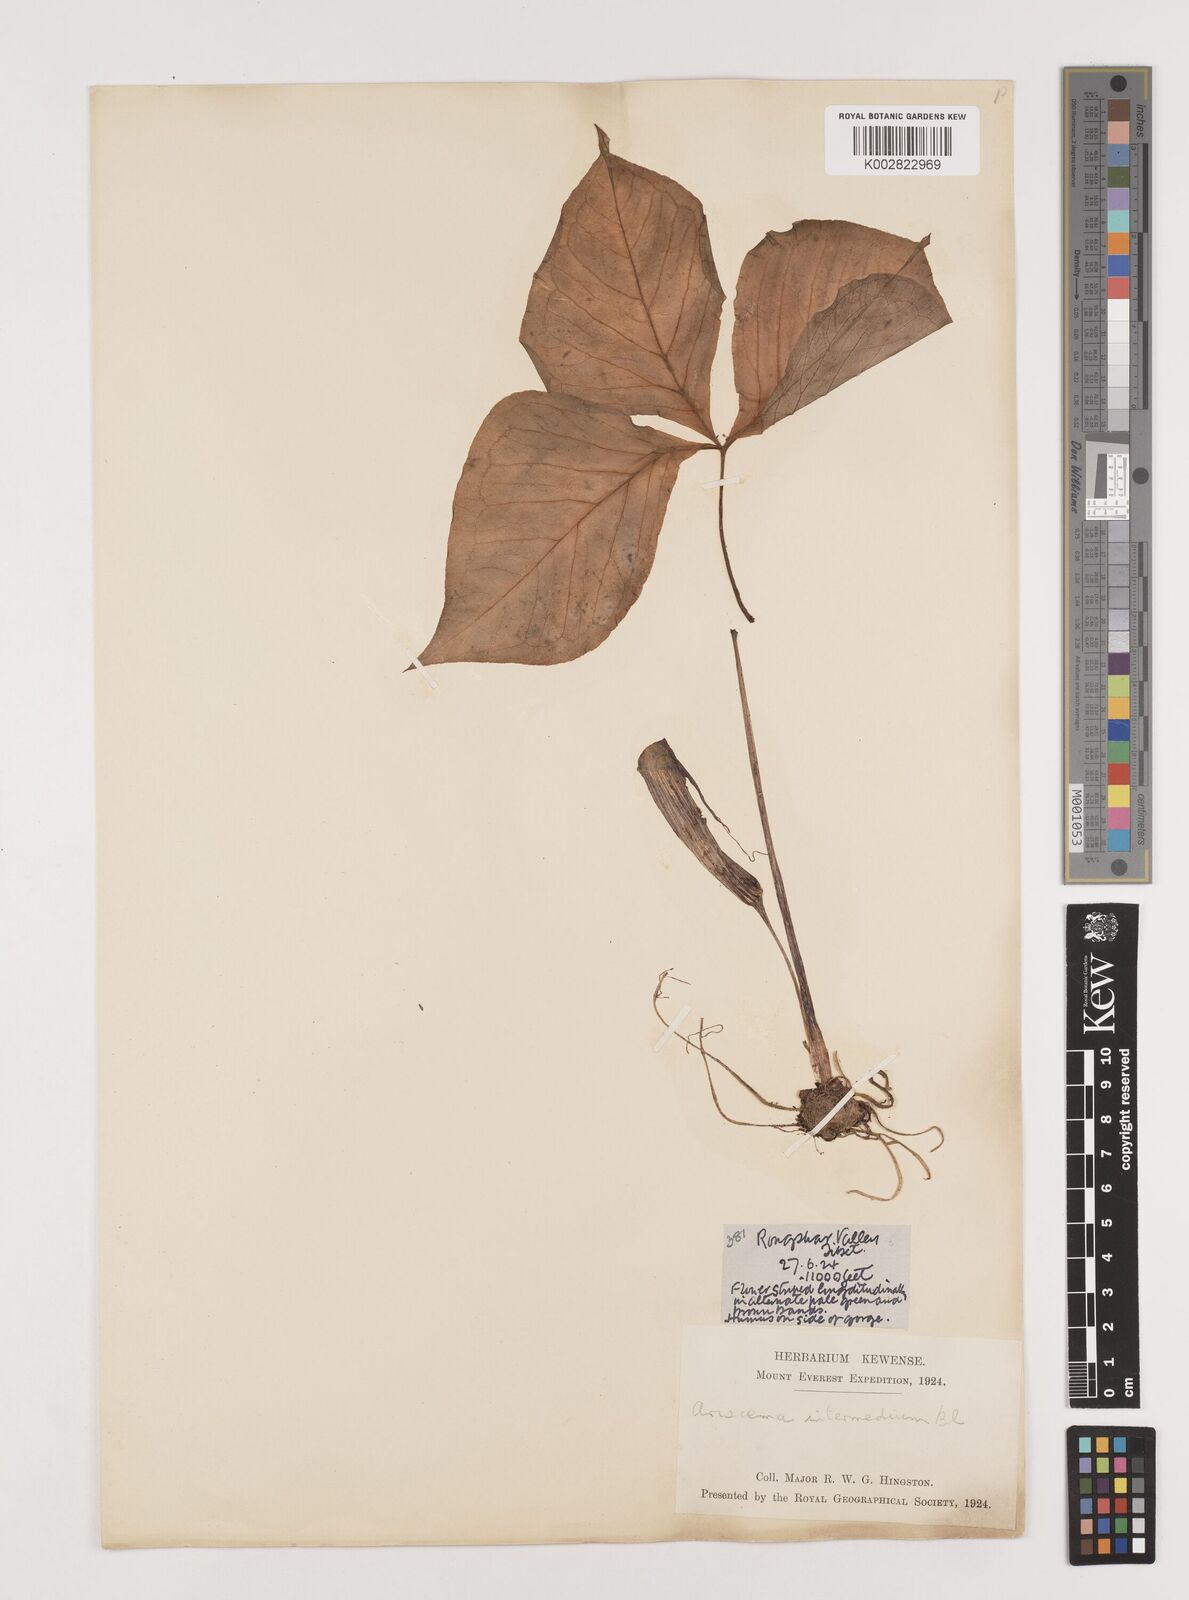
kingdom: Plantae
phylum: Tracheophyta
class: Liliopsida
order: Alismatales
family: Araceae
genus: Arisaema
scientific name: Arisaema intermedium
